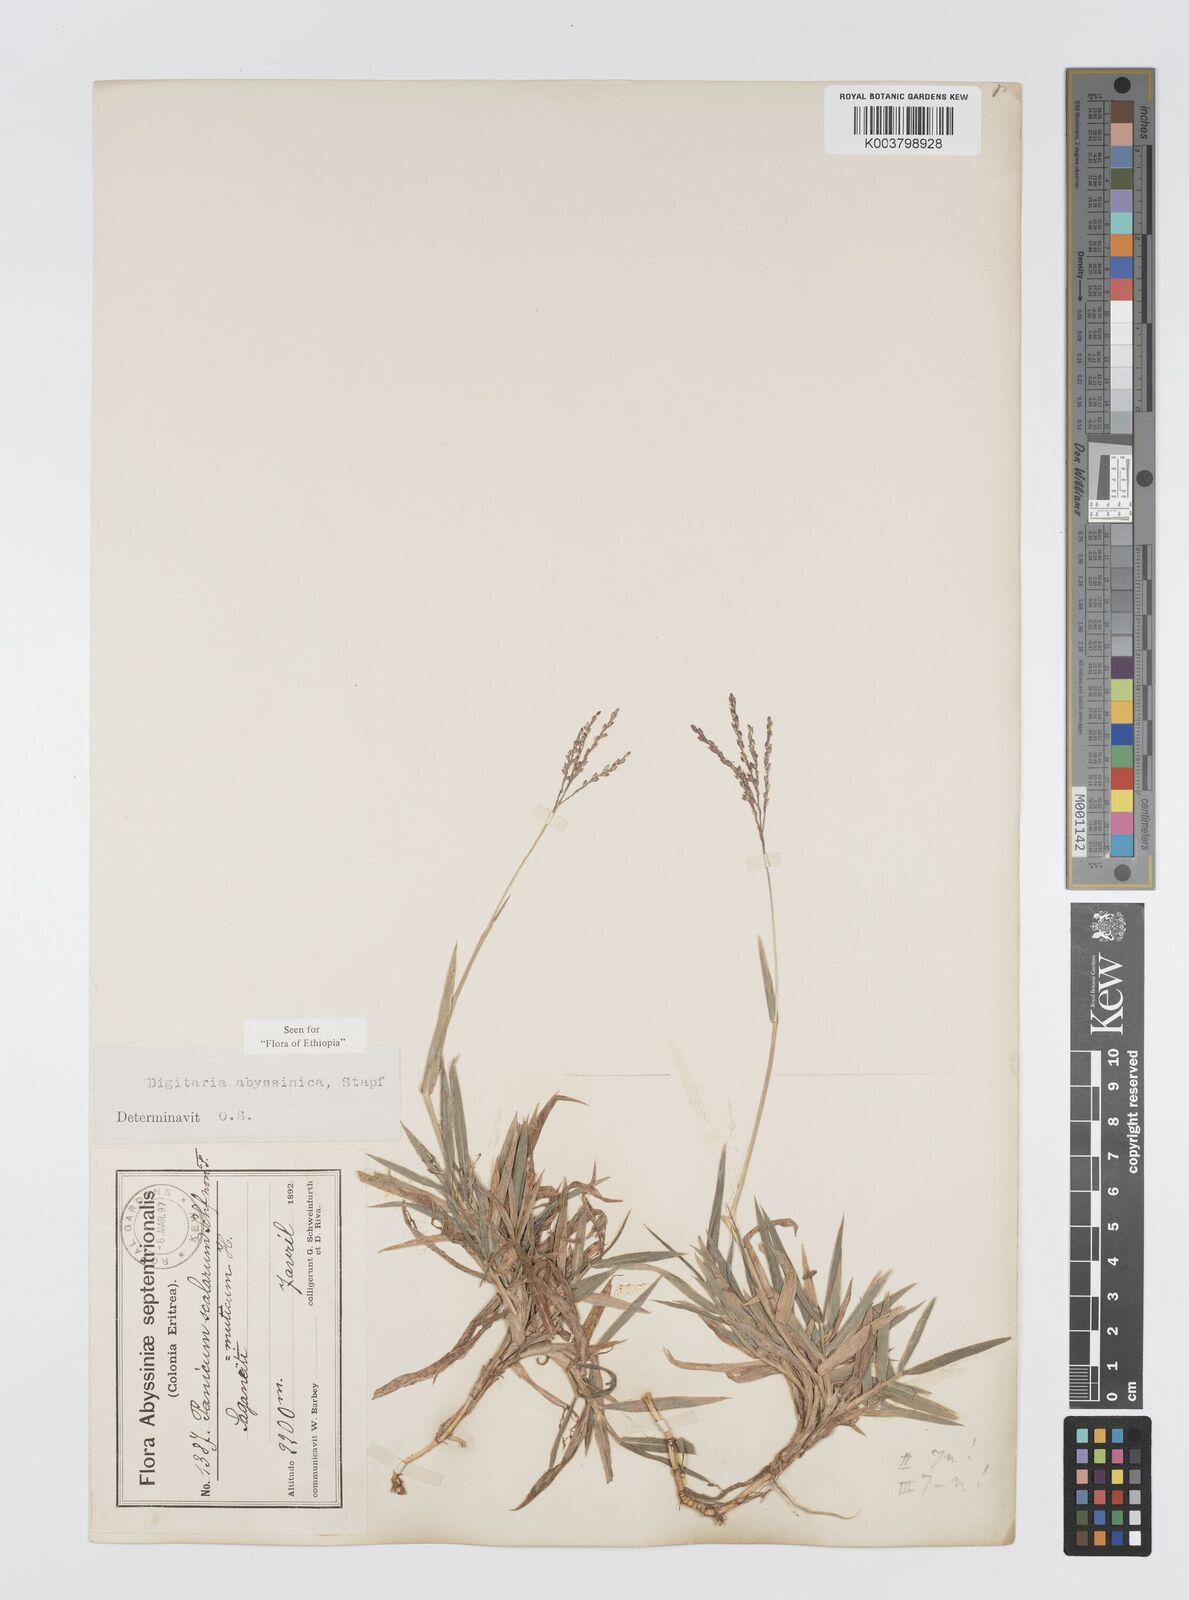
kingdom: Plantae
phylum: Tracheophyta
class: Liliopsida
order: Poales
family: Poaceae
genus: Digitaria
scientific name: Digitaria abyssinica
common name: African couchgrass
